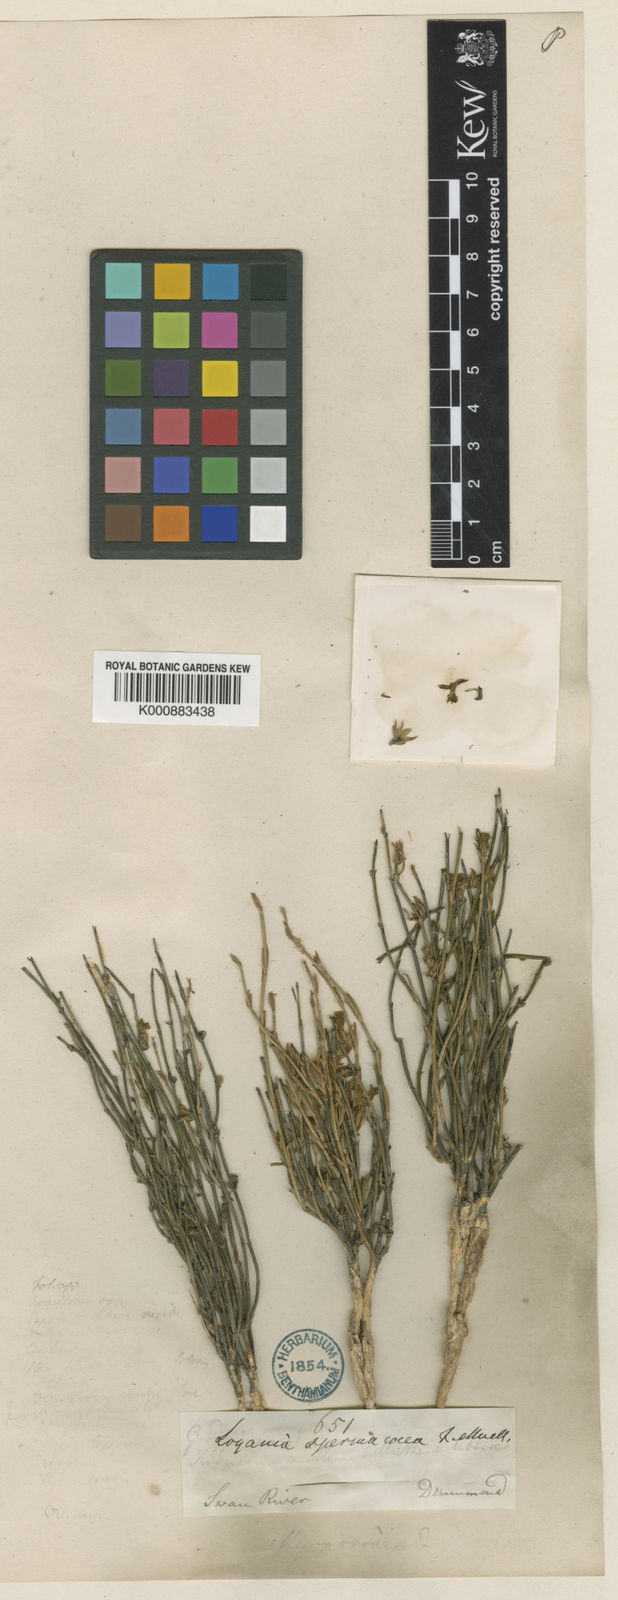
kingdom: Plantae
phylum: Tracheophyta
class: Magnoliopsida
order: Gentianales
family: Loganiaceae
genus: Orianthera
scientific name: Orianthera flaviflora
